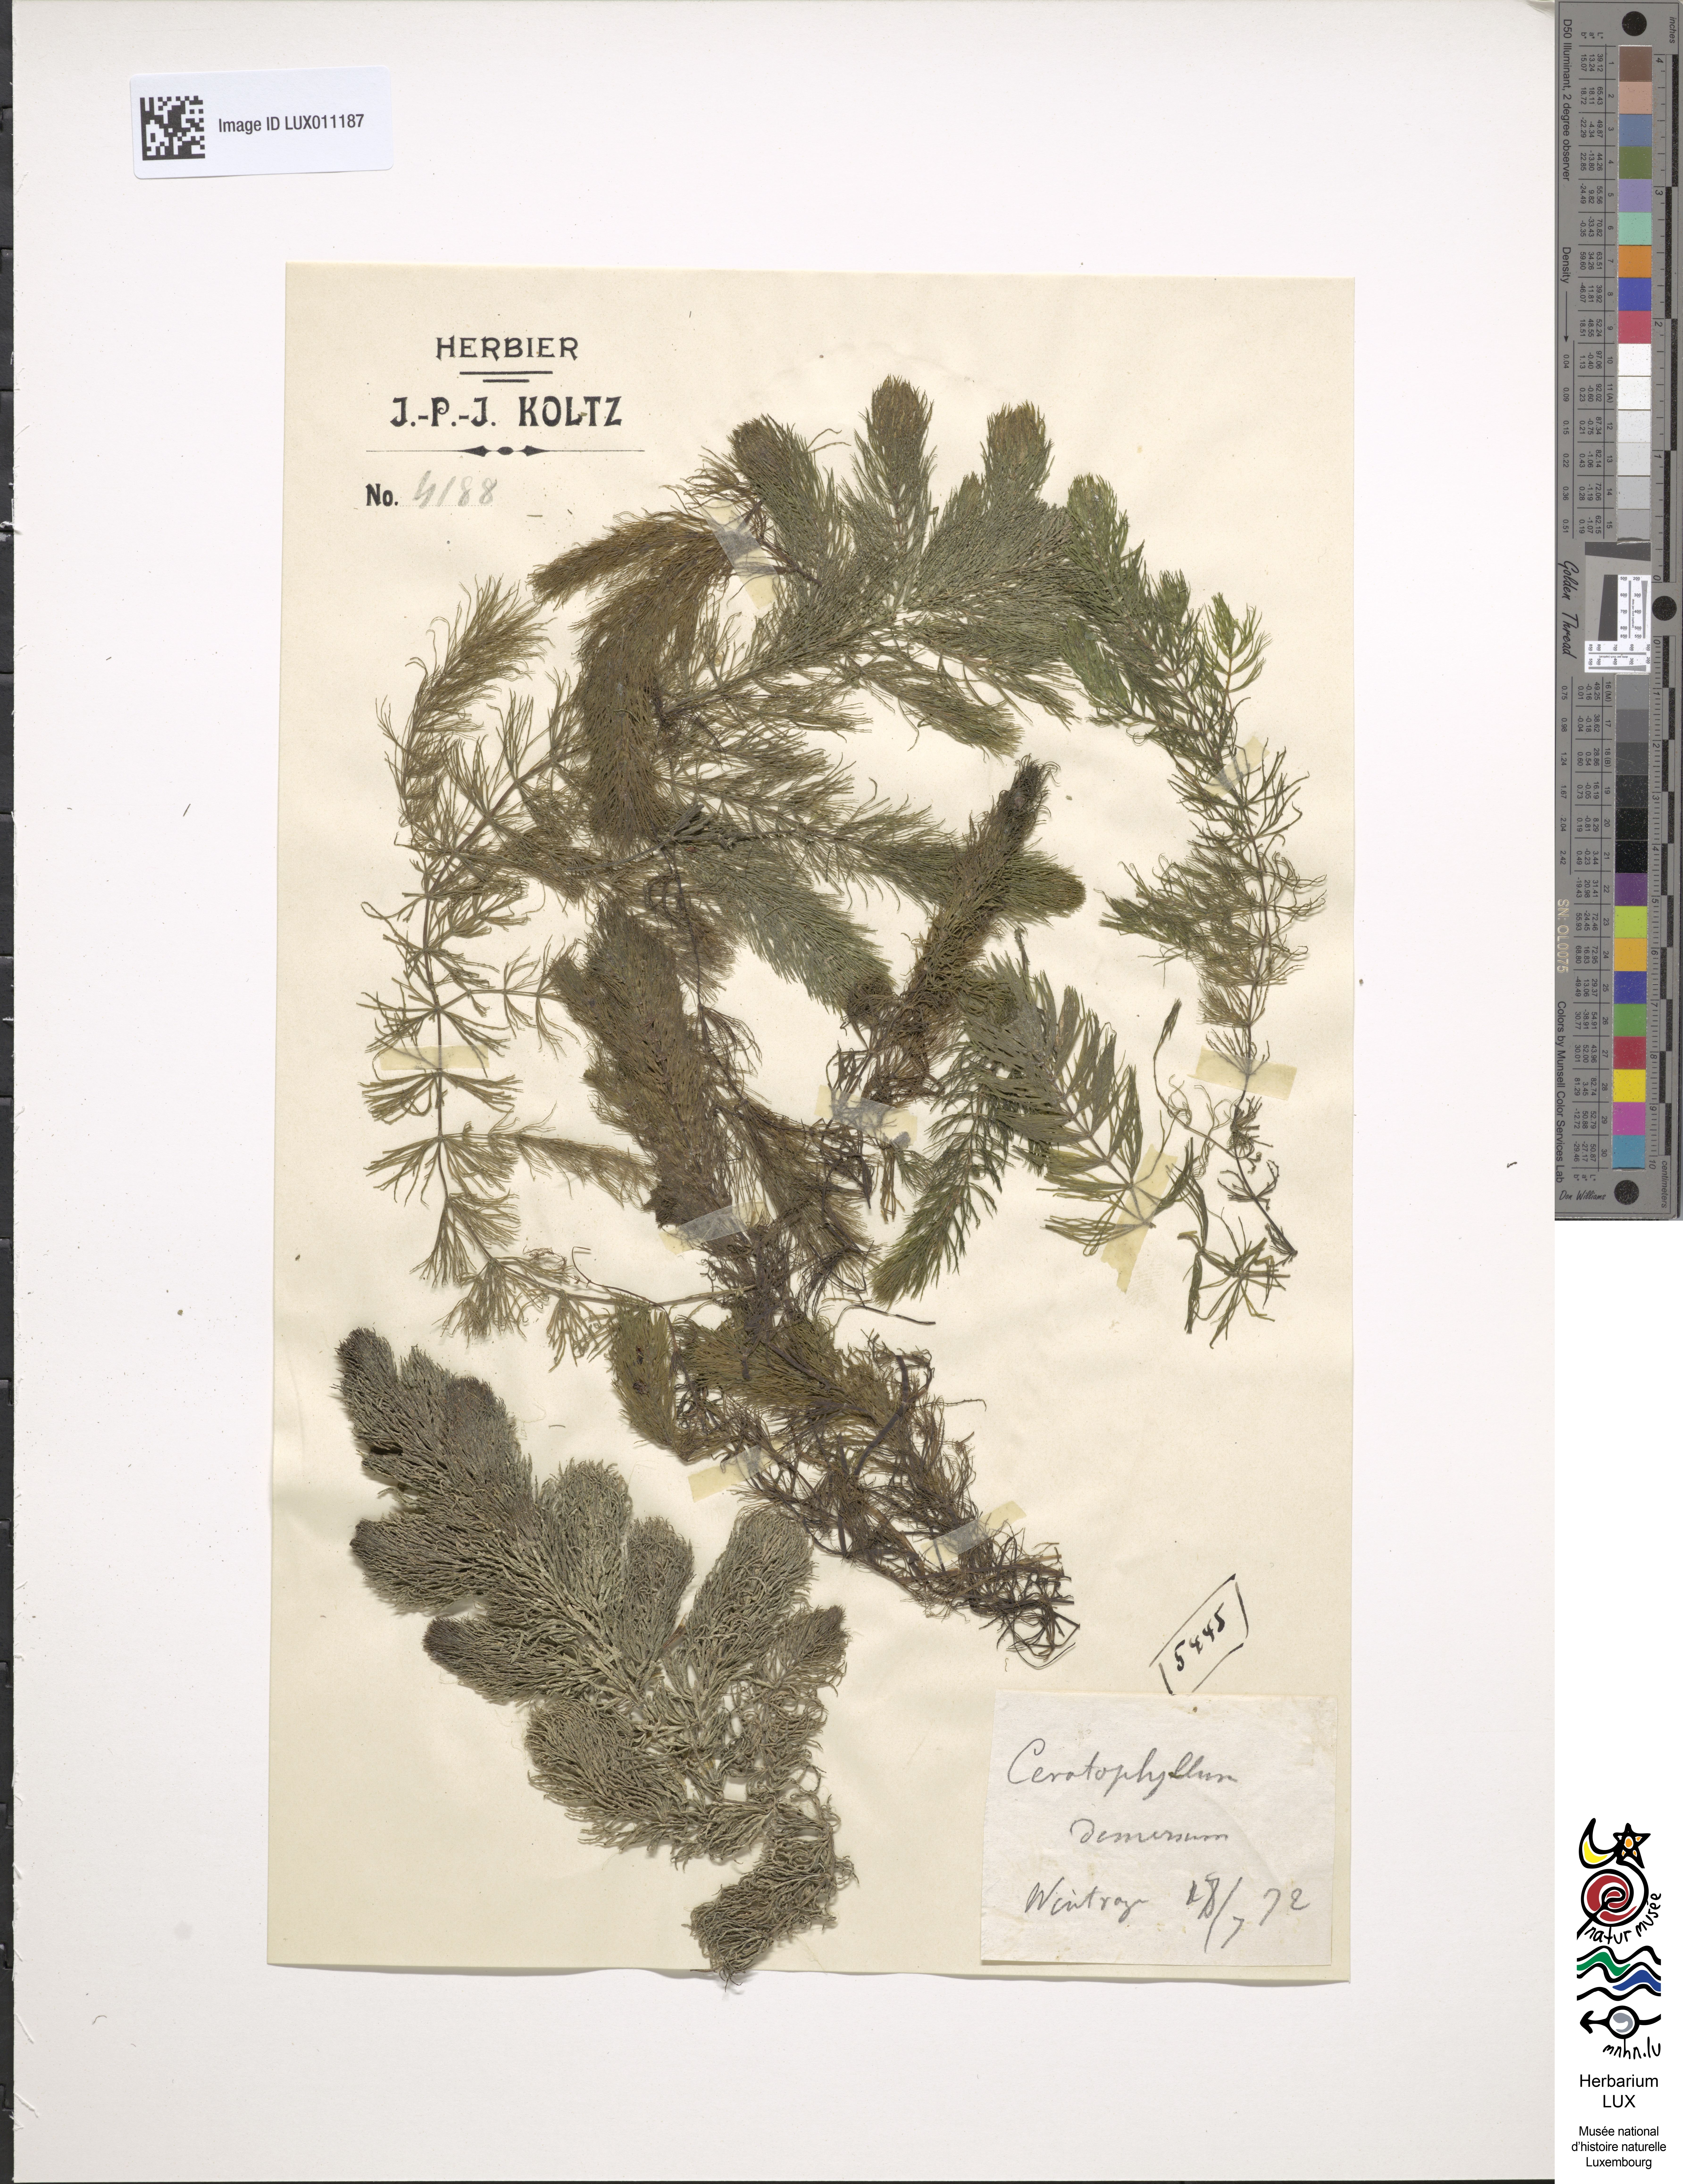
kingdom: Plantae
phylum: Tracheophyta
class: Magnoliopsida
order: Ceratophyllales
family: Ceratophyllaceae
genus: Ceratophyllum
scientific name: Ceratophyllum demersum
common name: Rigid hornwort
